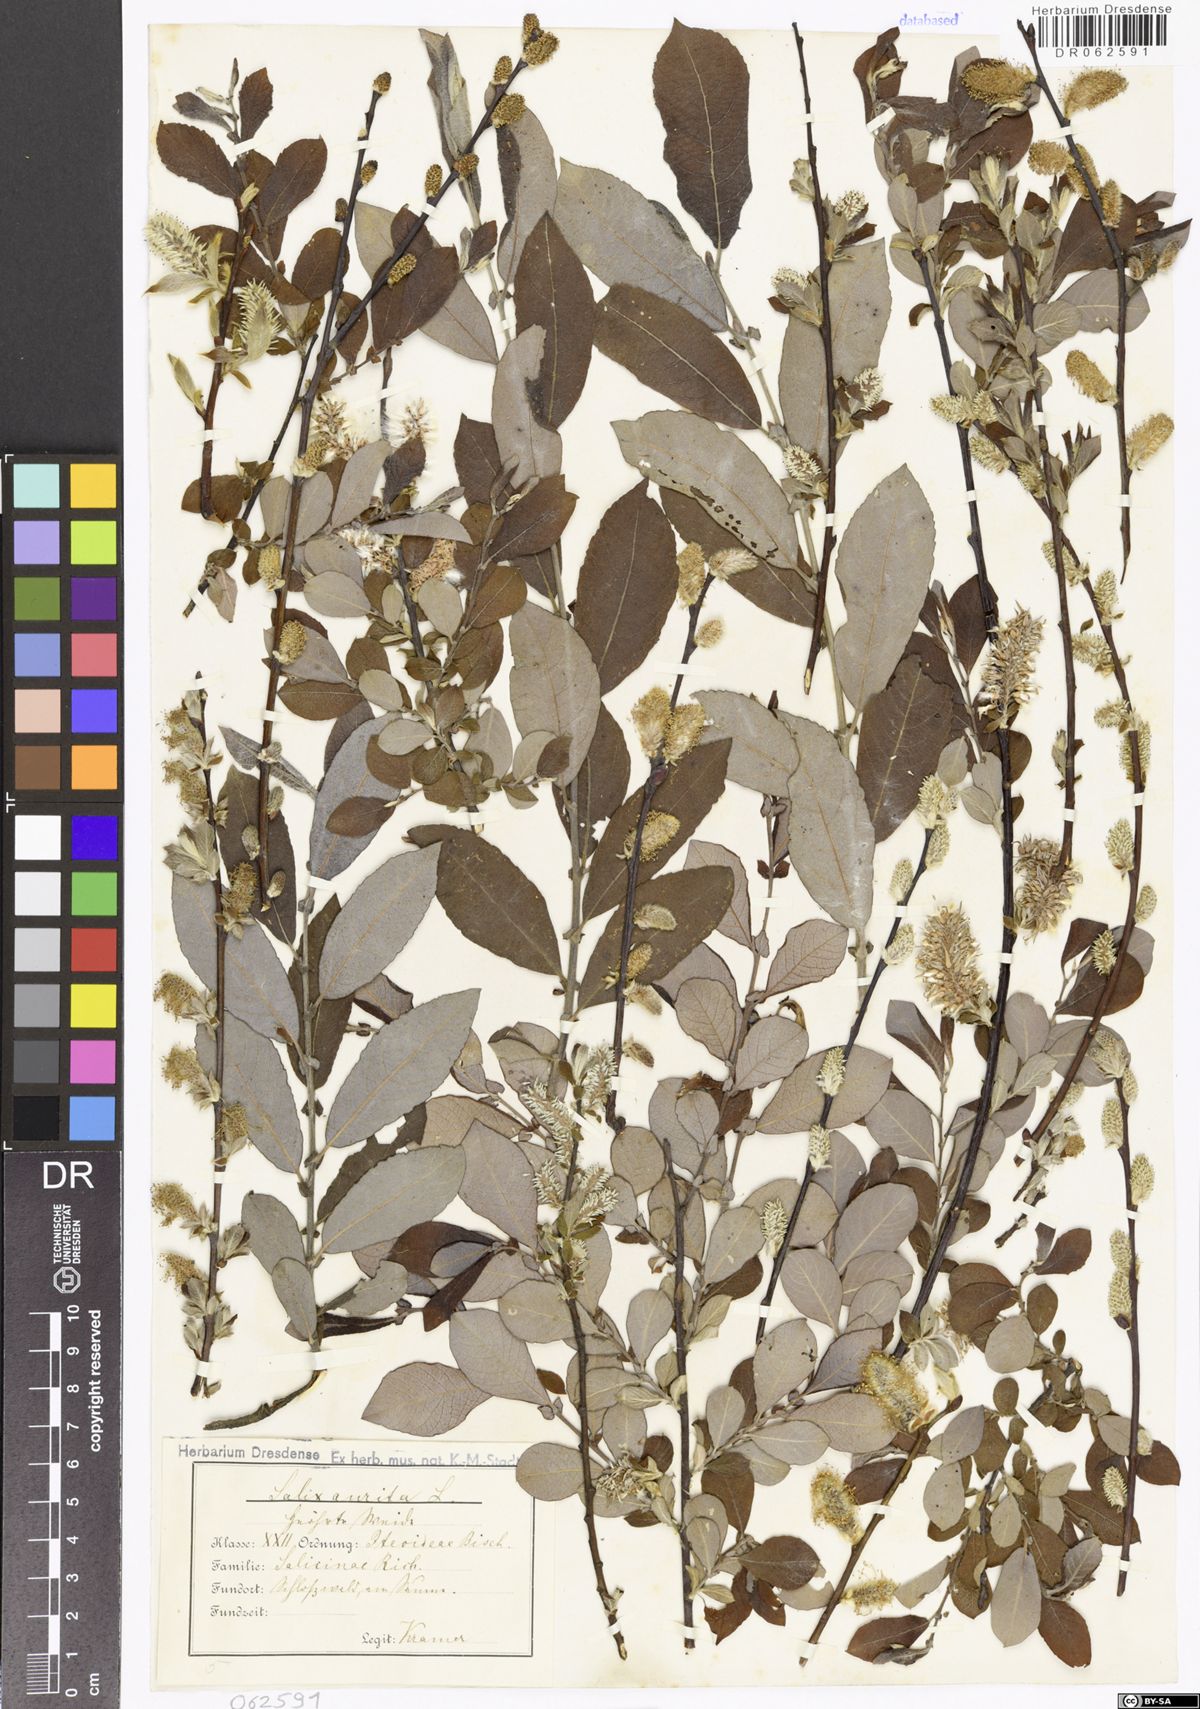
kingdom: Plantae
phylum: Tracheophyta
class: Magnoliopsida
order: Malpighiales
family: Salicaceae
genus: Salix
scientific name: Salix aurita
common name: Eared willow
